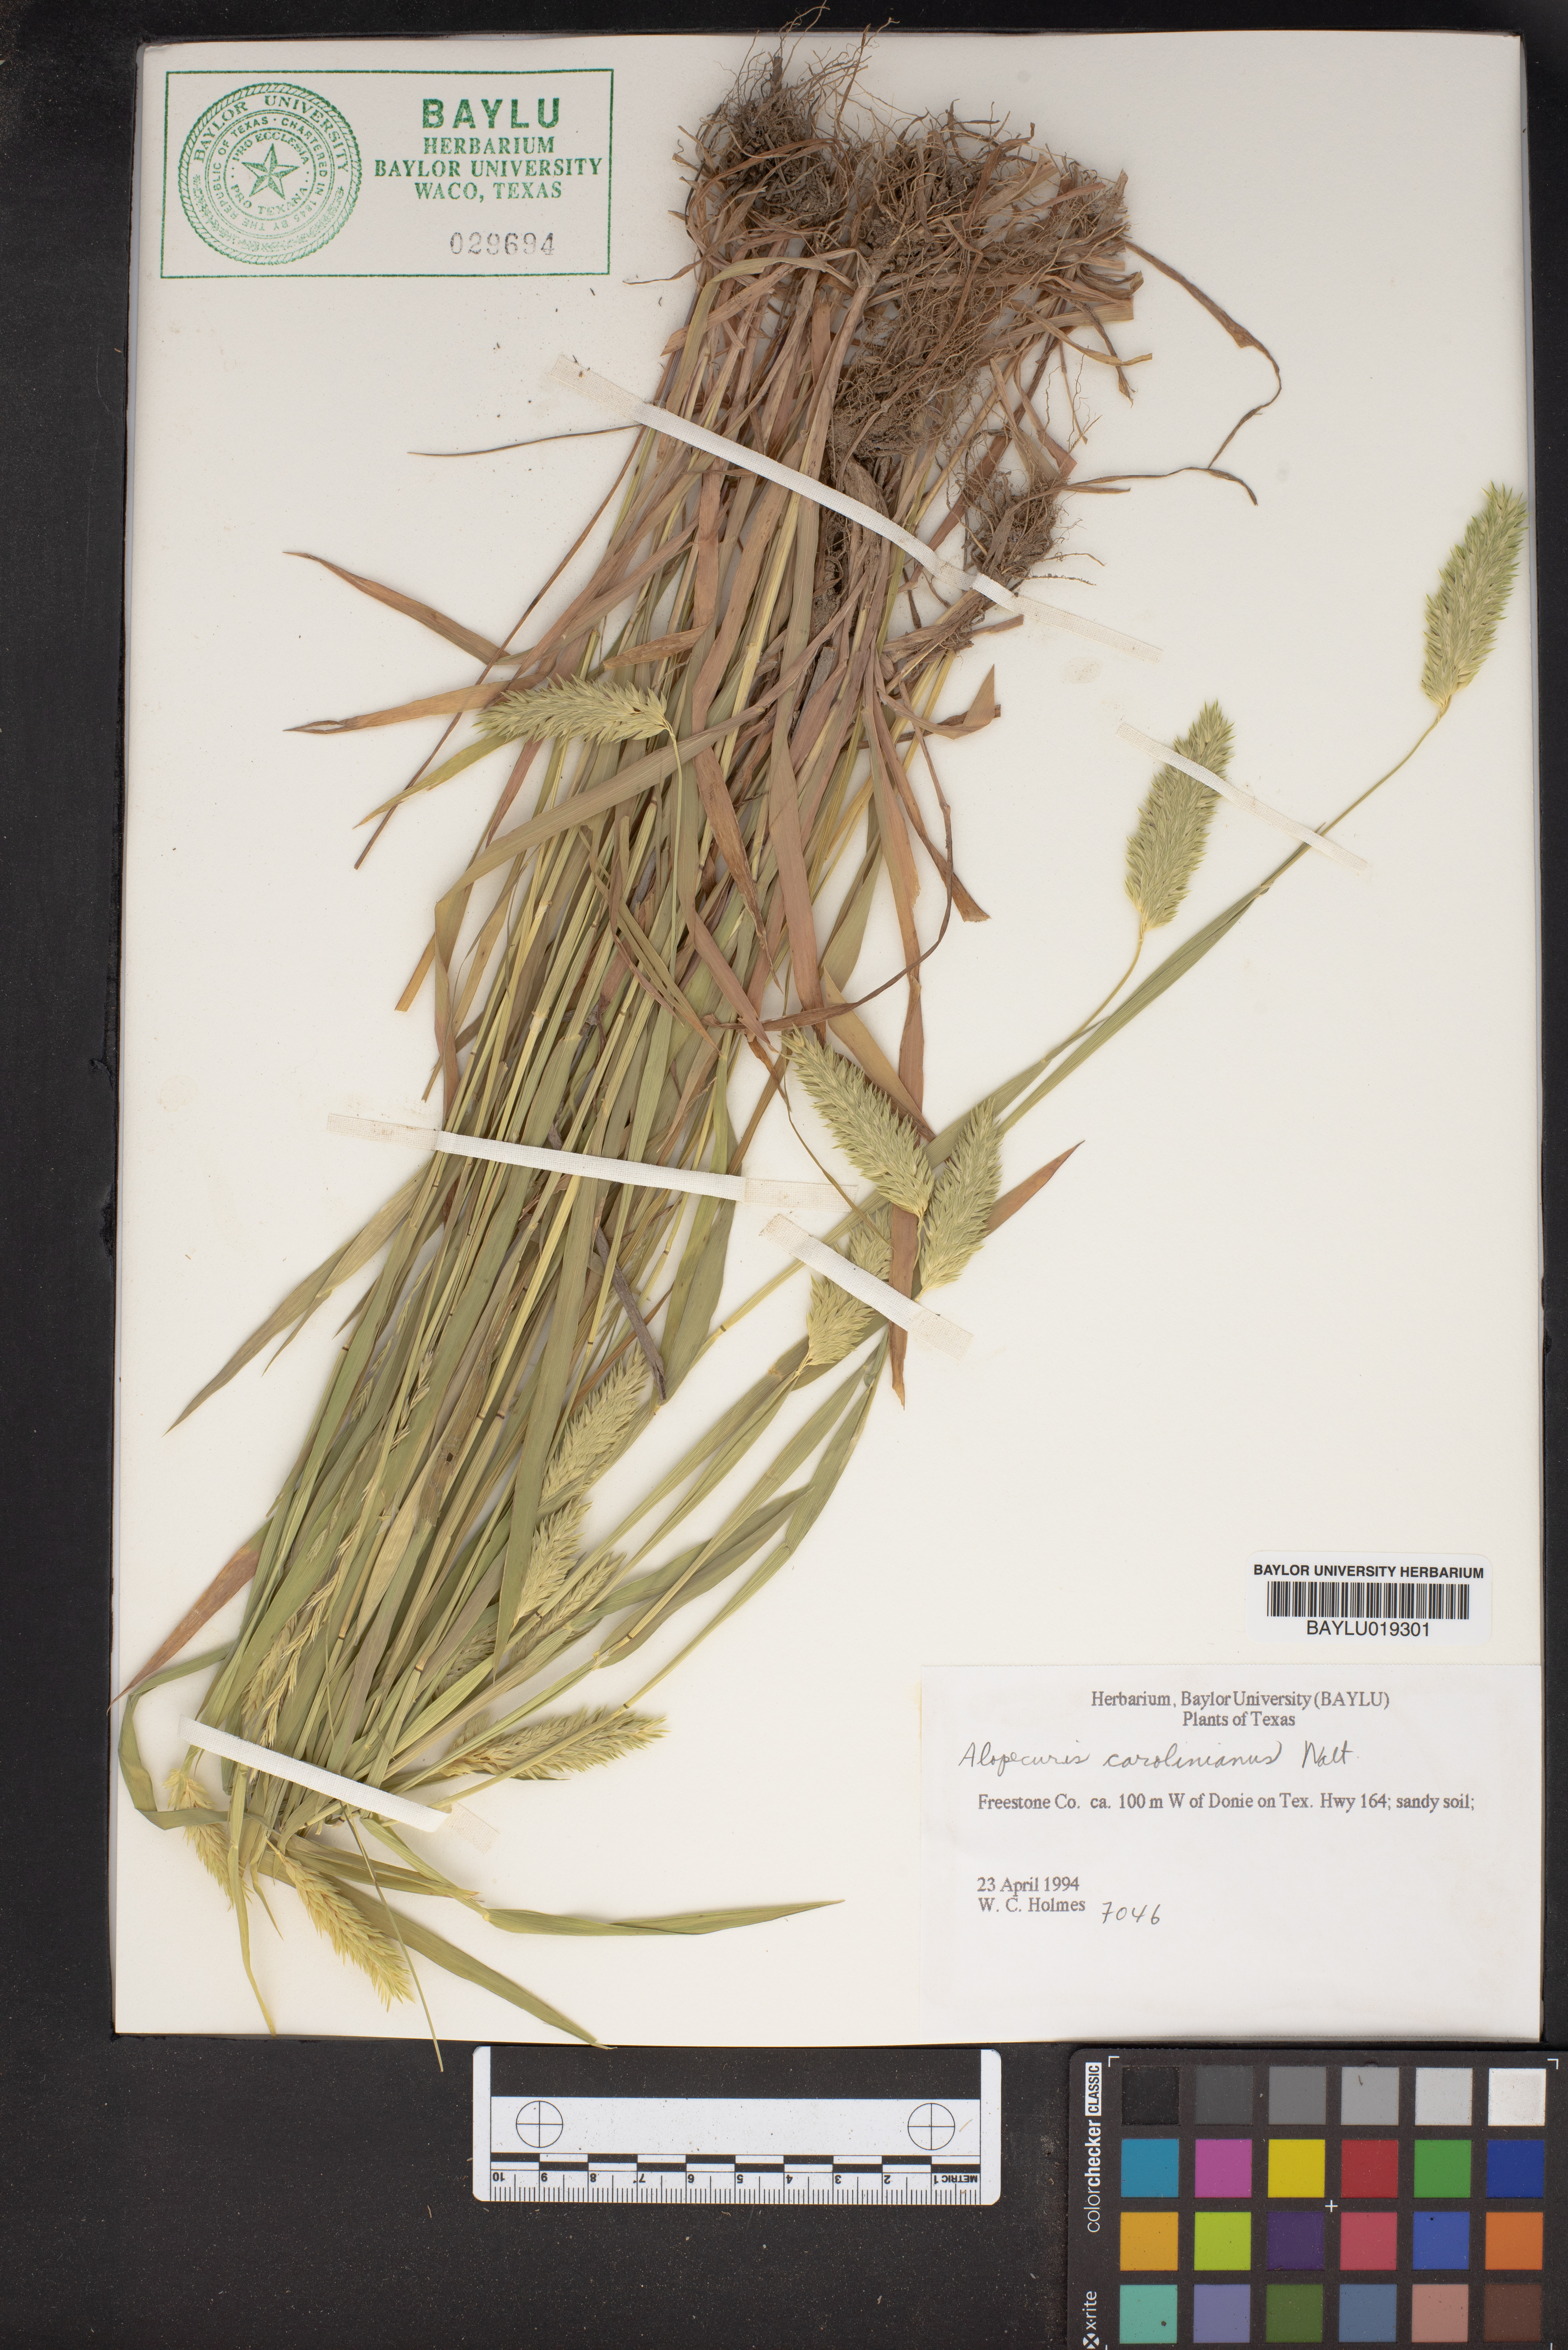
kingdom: Plantae
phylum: Tracheophyta
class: Liliopsida
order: Poales
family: Poaceae
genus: Alopecurus
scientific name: Alopecurus carolinianus
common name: Tufted foxtail
